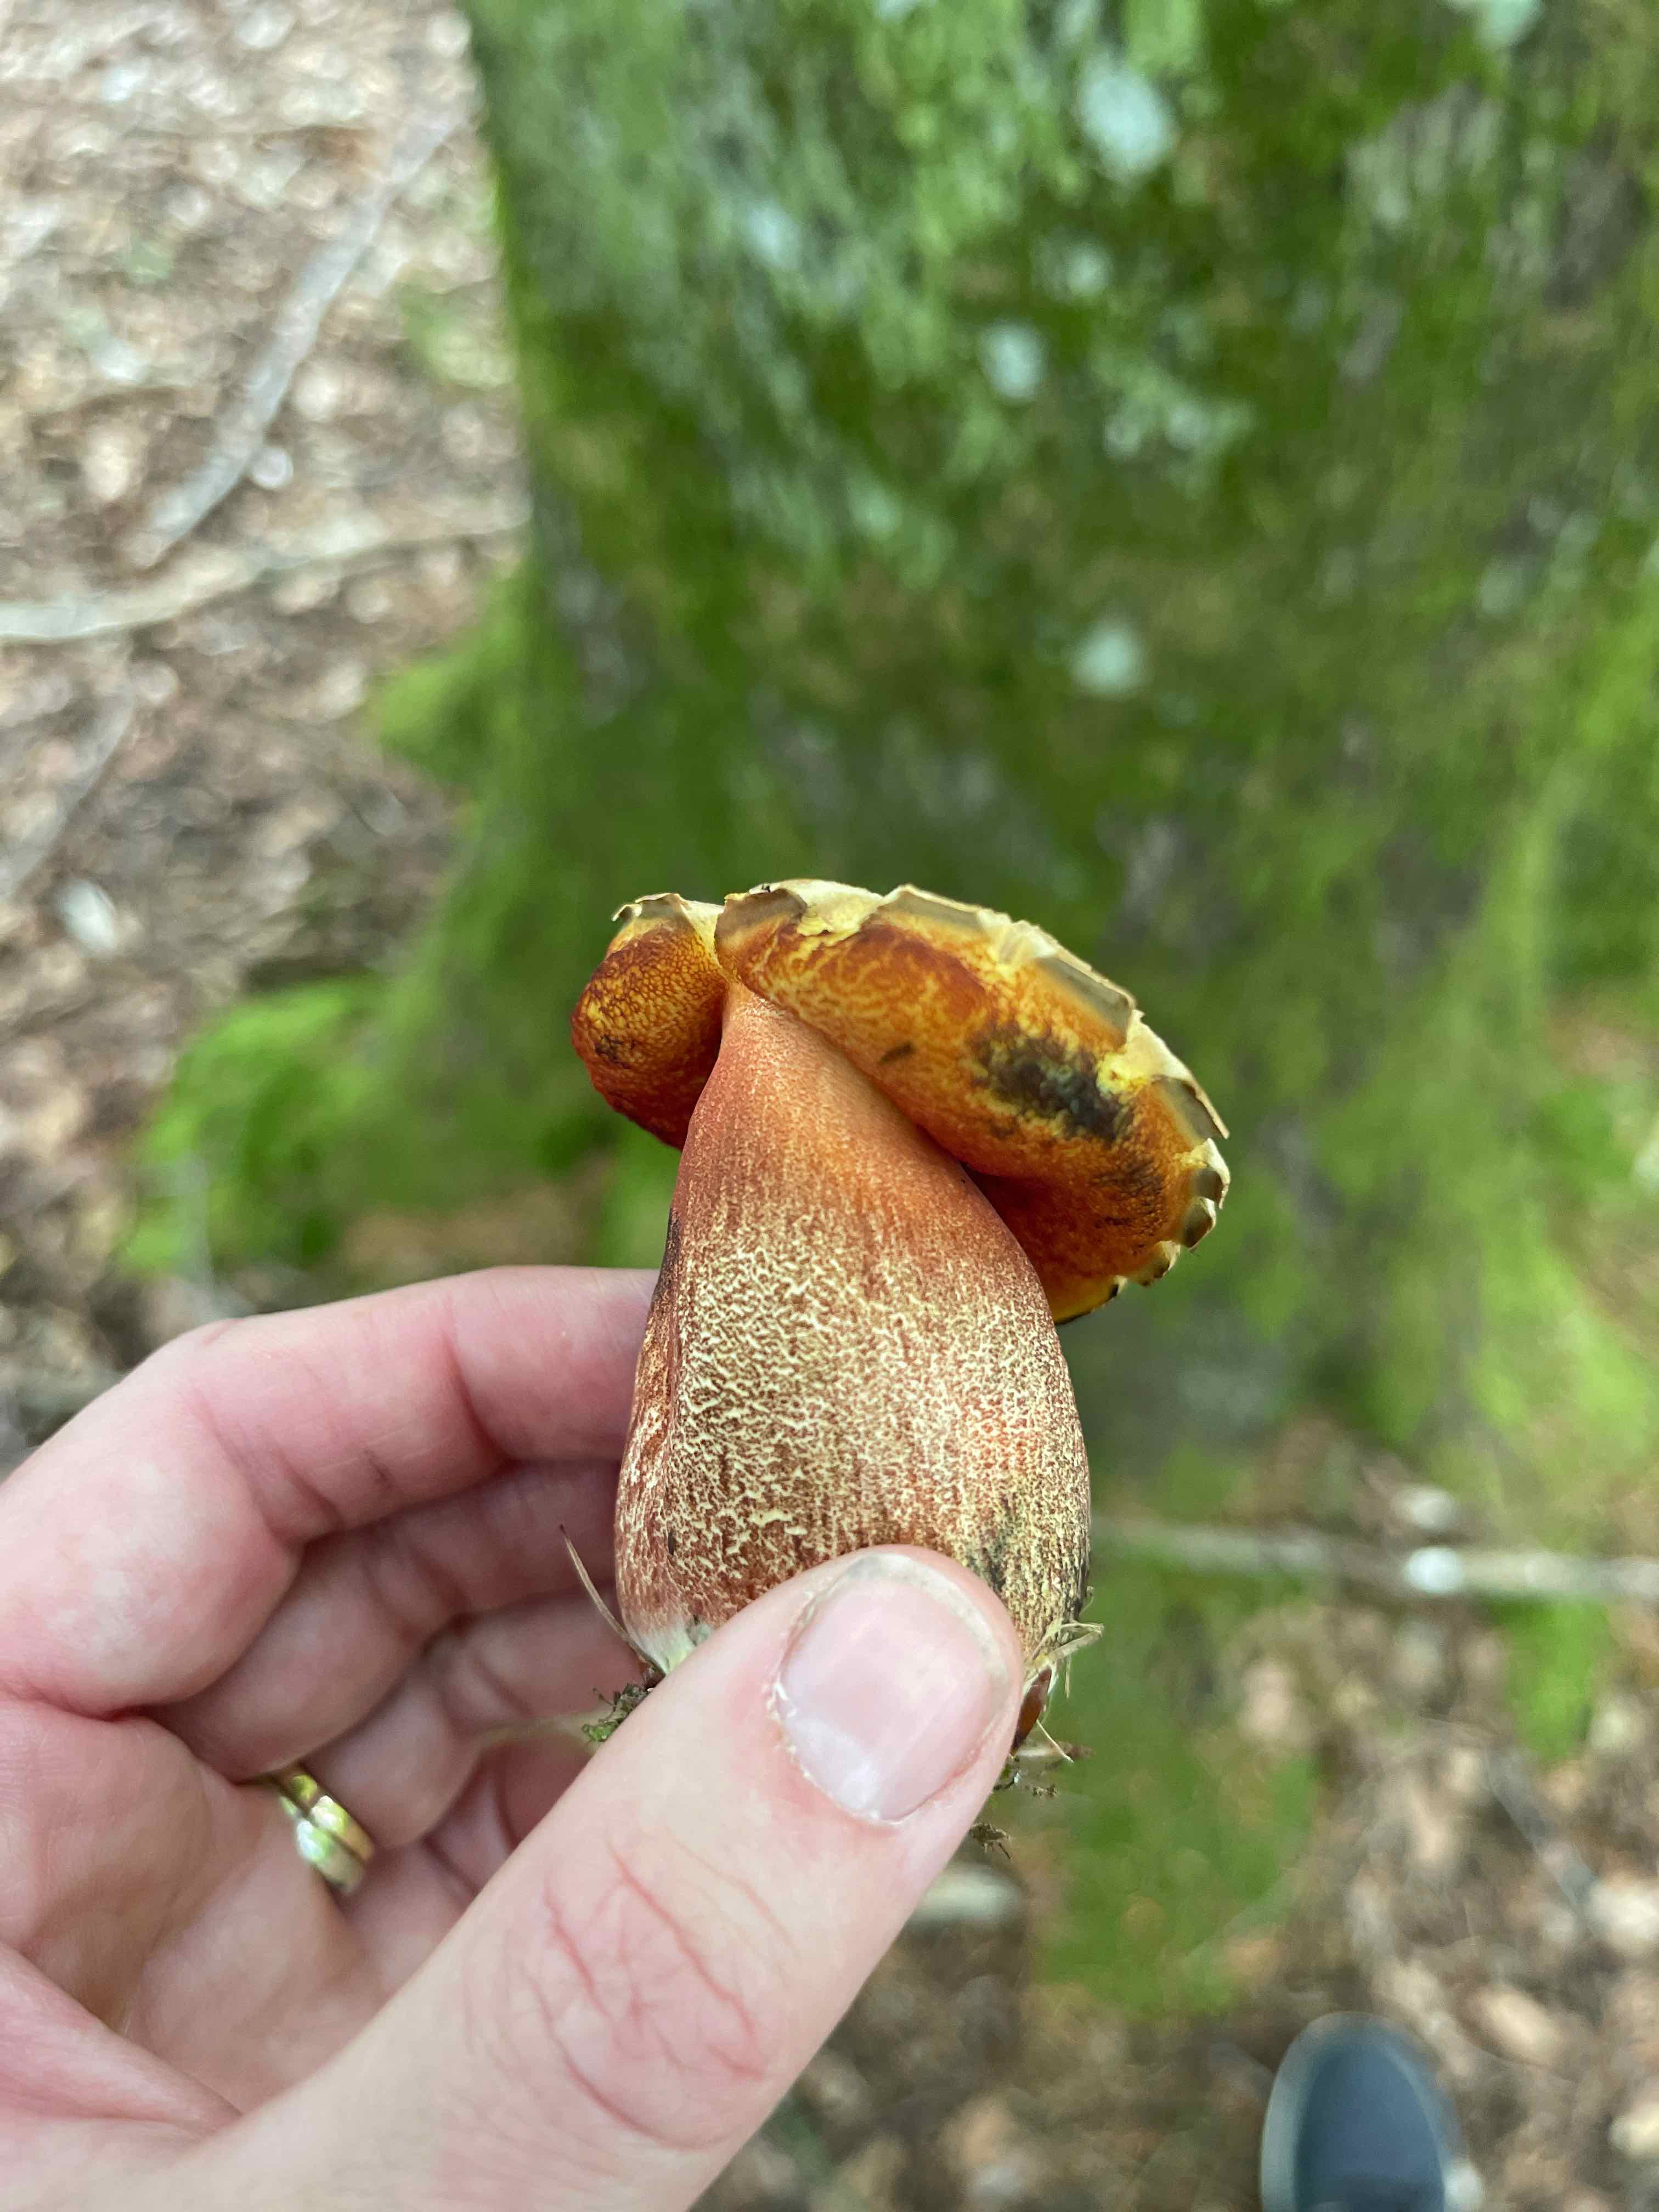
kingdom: Fungi
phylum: Basidiomycota
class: Agaricomycetes
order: Boletales
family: Boletaceae
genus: Neoboletus
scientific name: Neoboletus erythropus
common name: punktstokket indigorørhat
